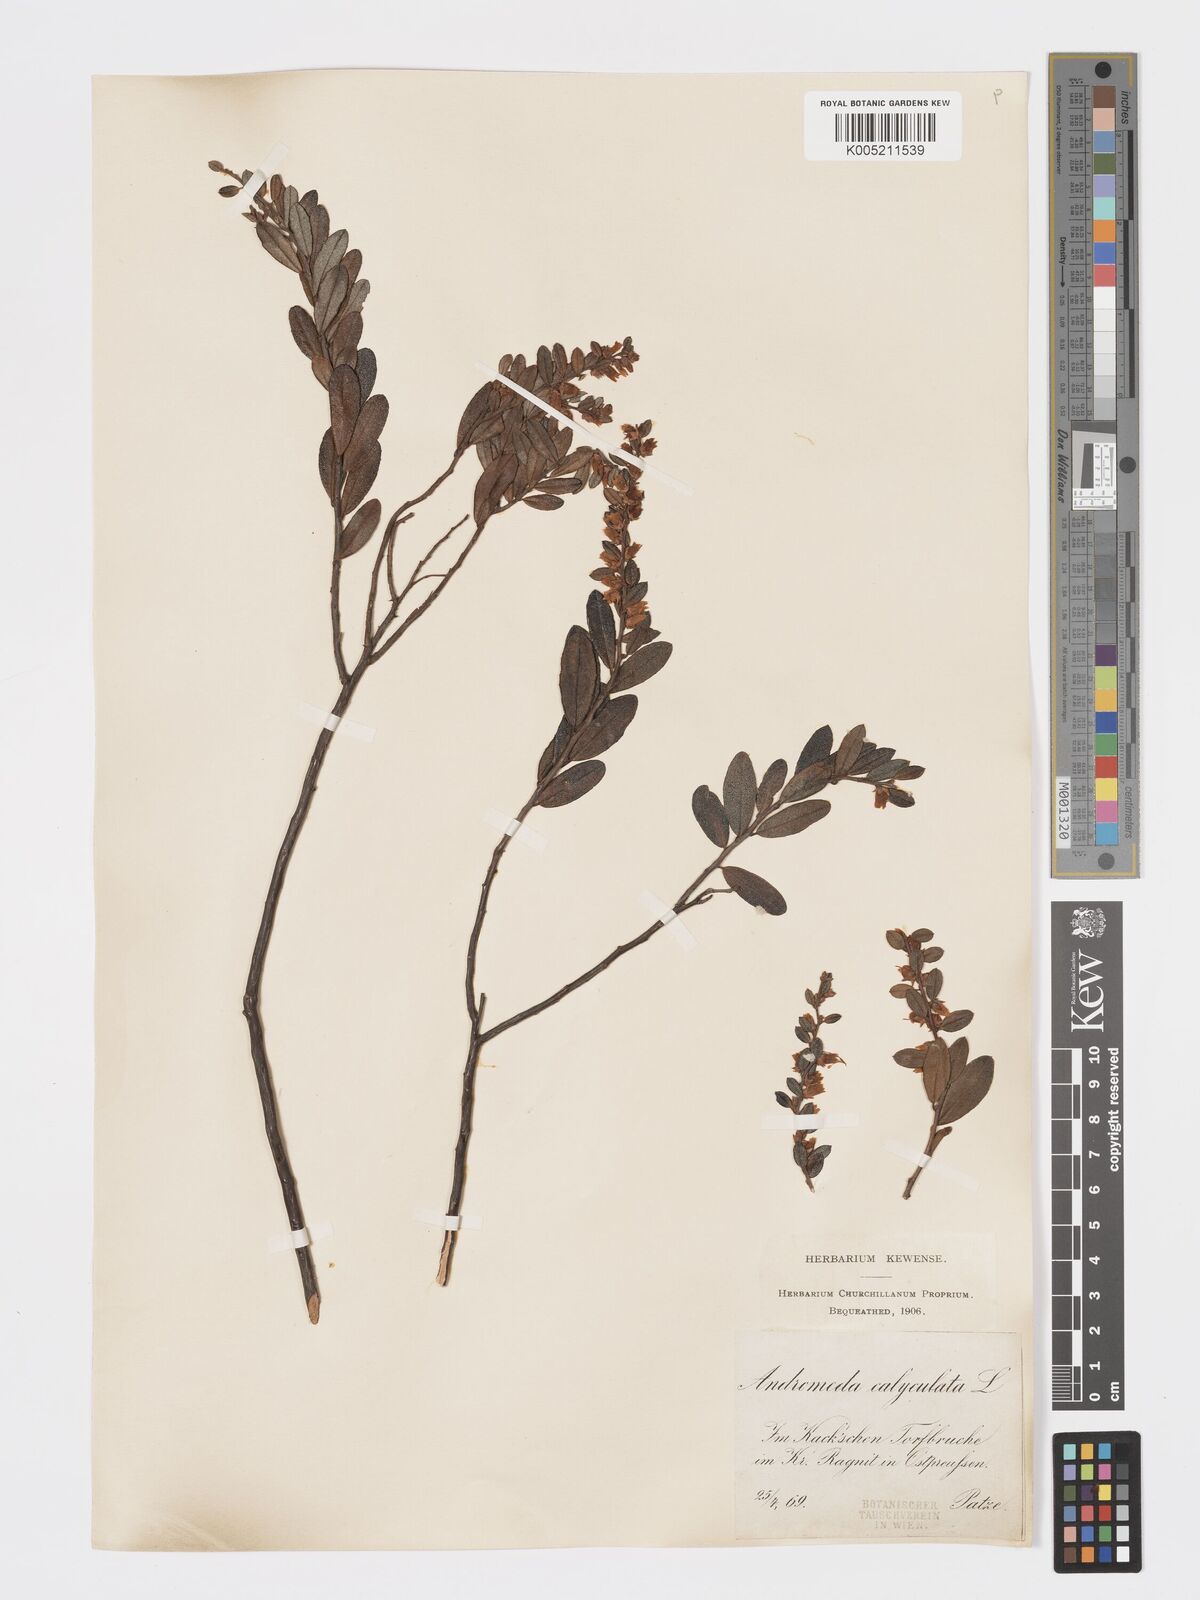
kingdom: Plantae
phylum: Tracheophyta
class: Magnoliopsida
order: Ericales
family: Ericaceae
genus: Chamaedaphne
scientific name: Chamaedaphne calyculata
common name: Leatherleaf
